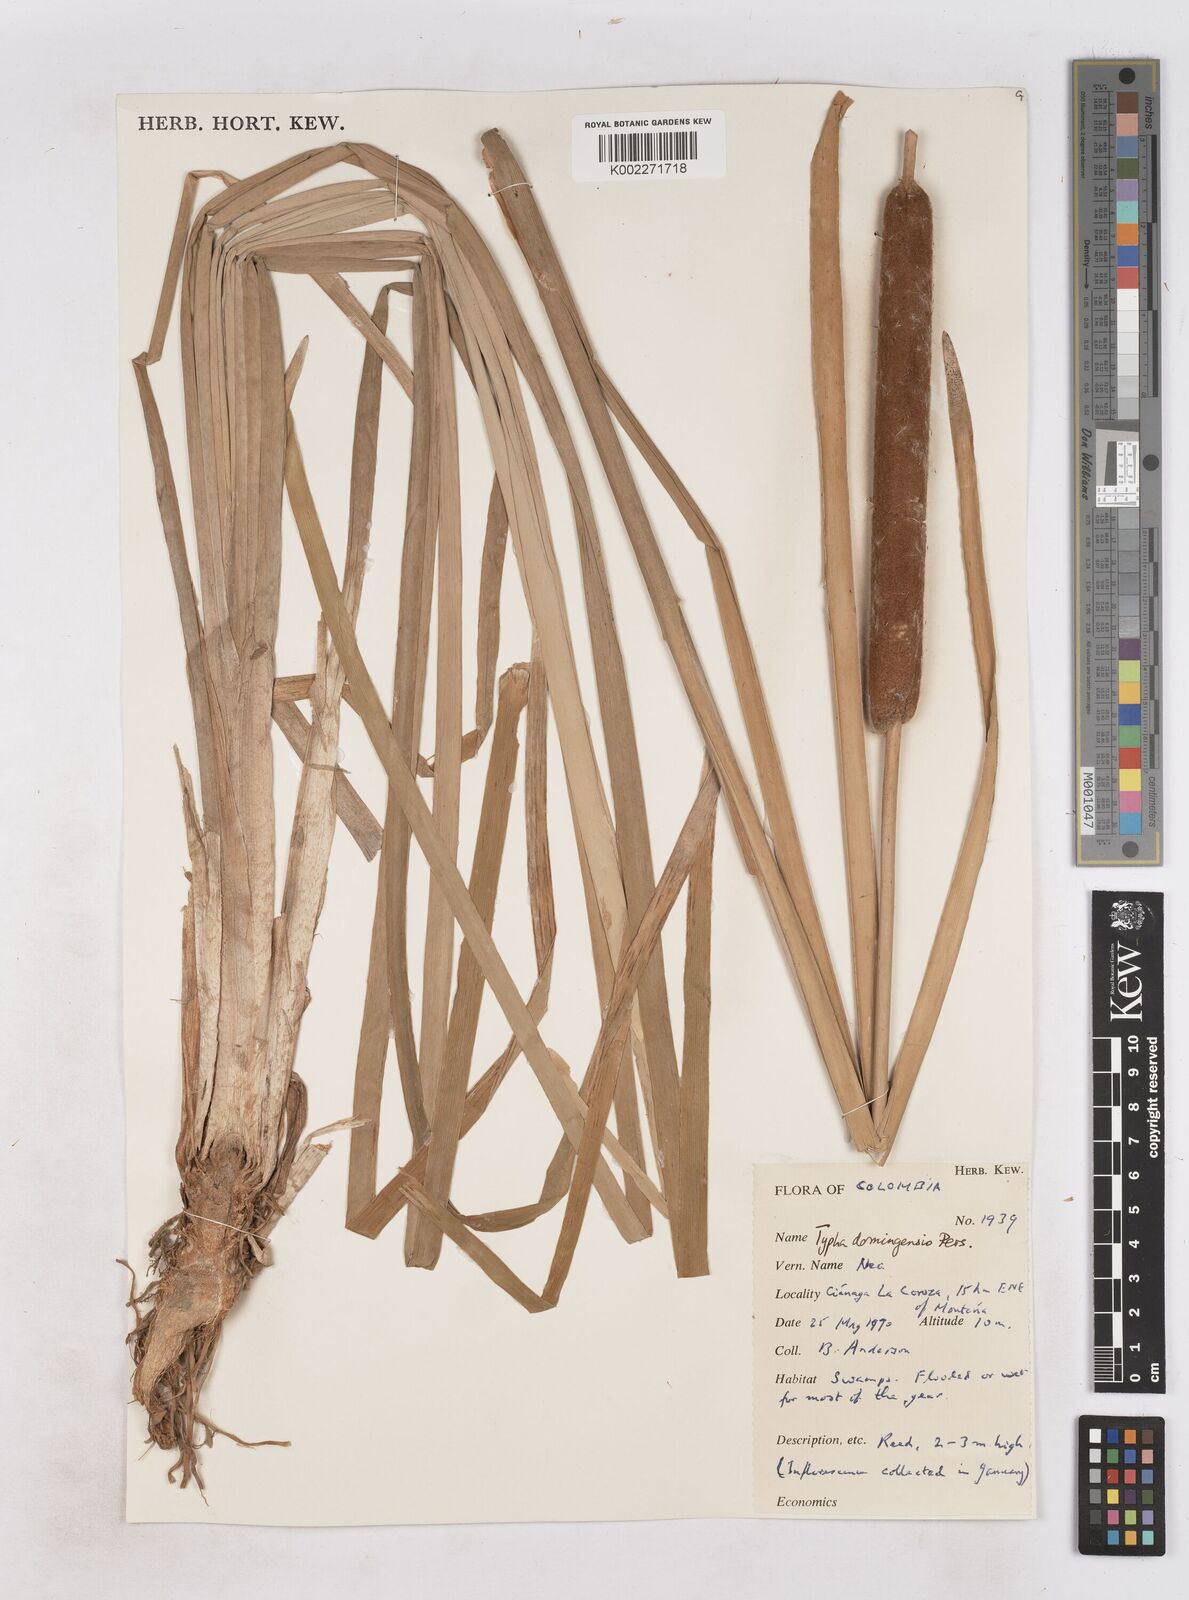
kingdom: Plantae
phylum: Tracheophyta
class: Liliopsida
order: Poales
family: Typhaceae
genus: Typha
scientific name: Typha domingensis
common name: Southern cattail
